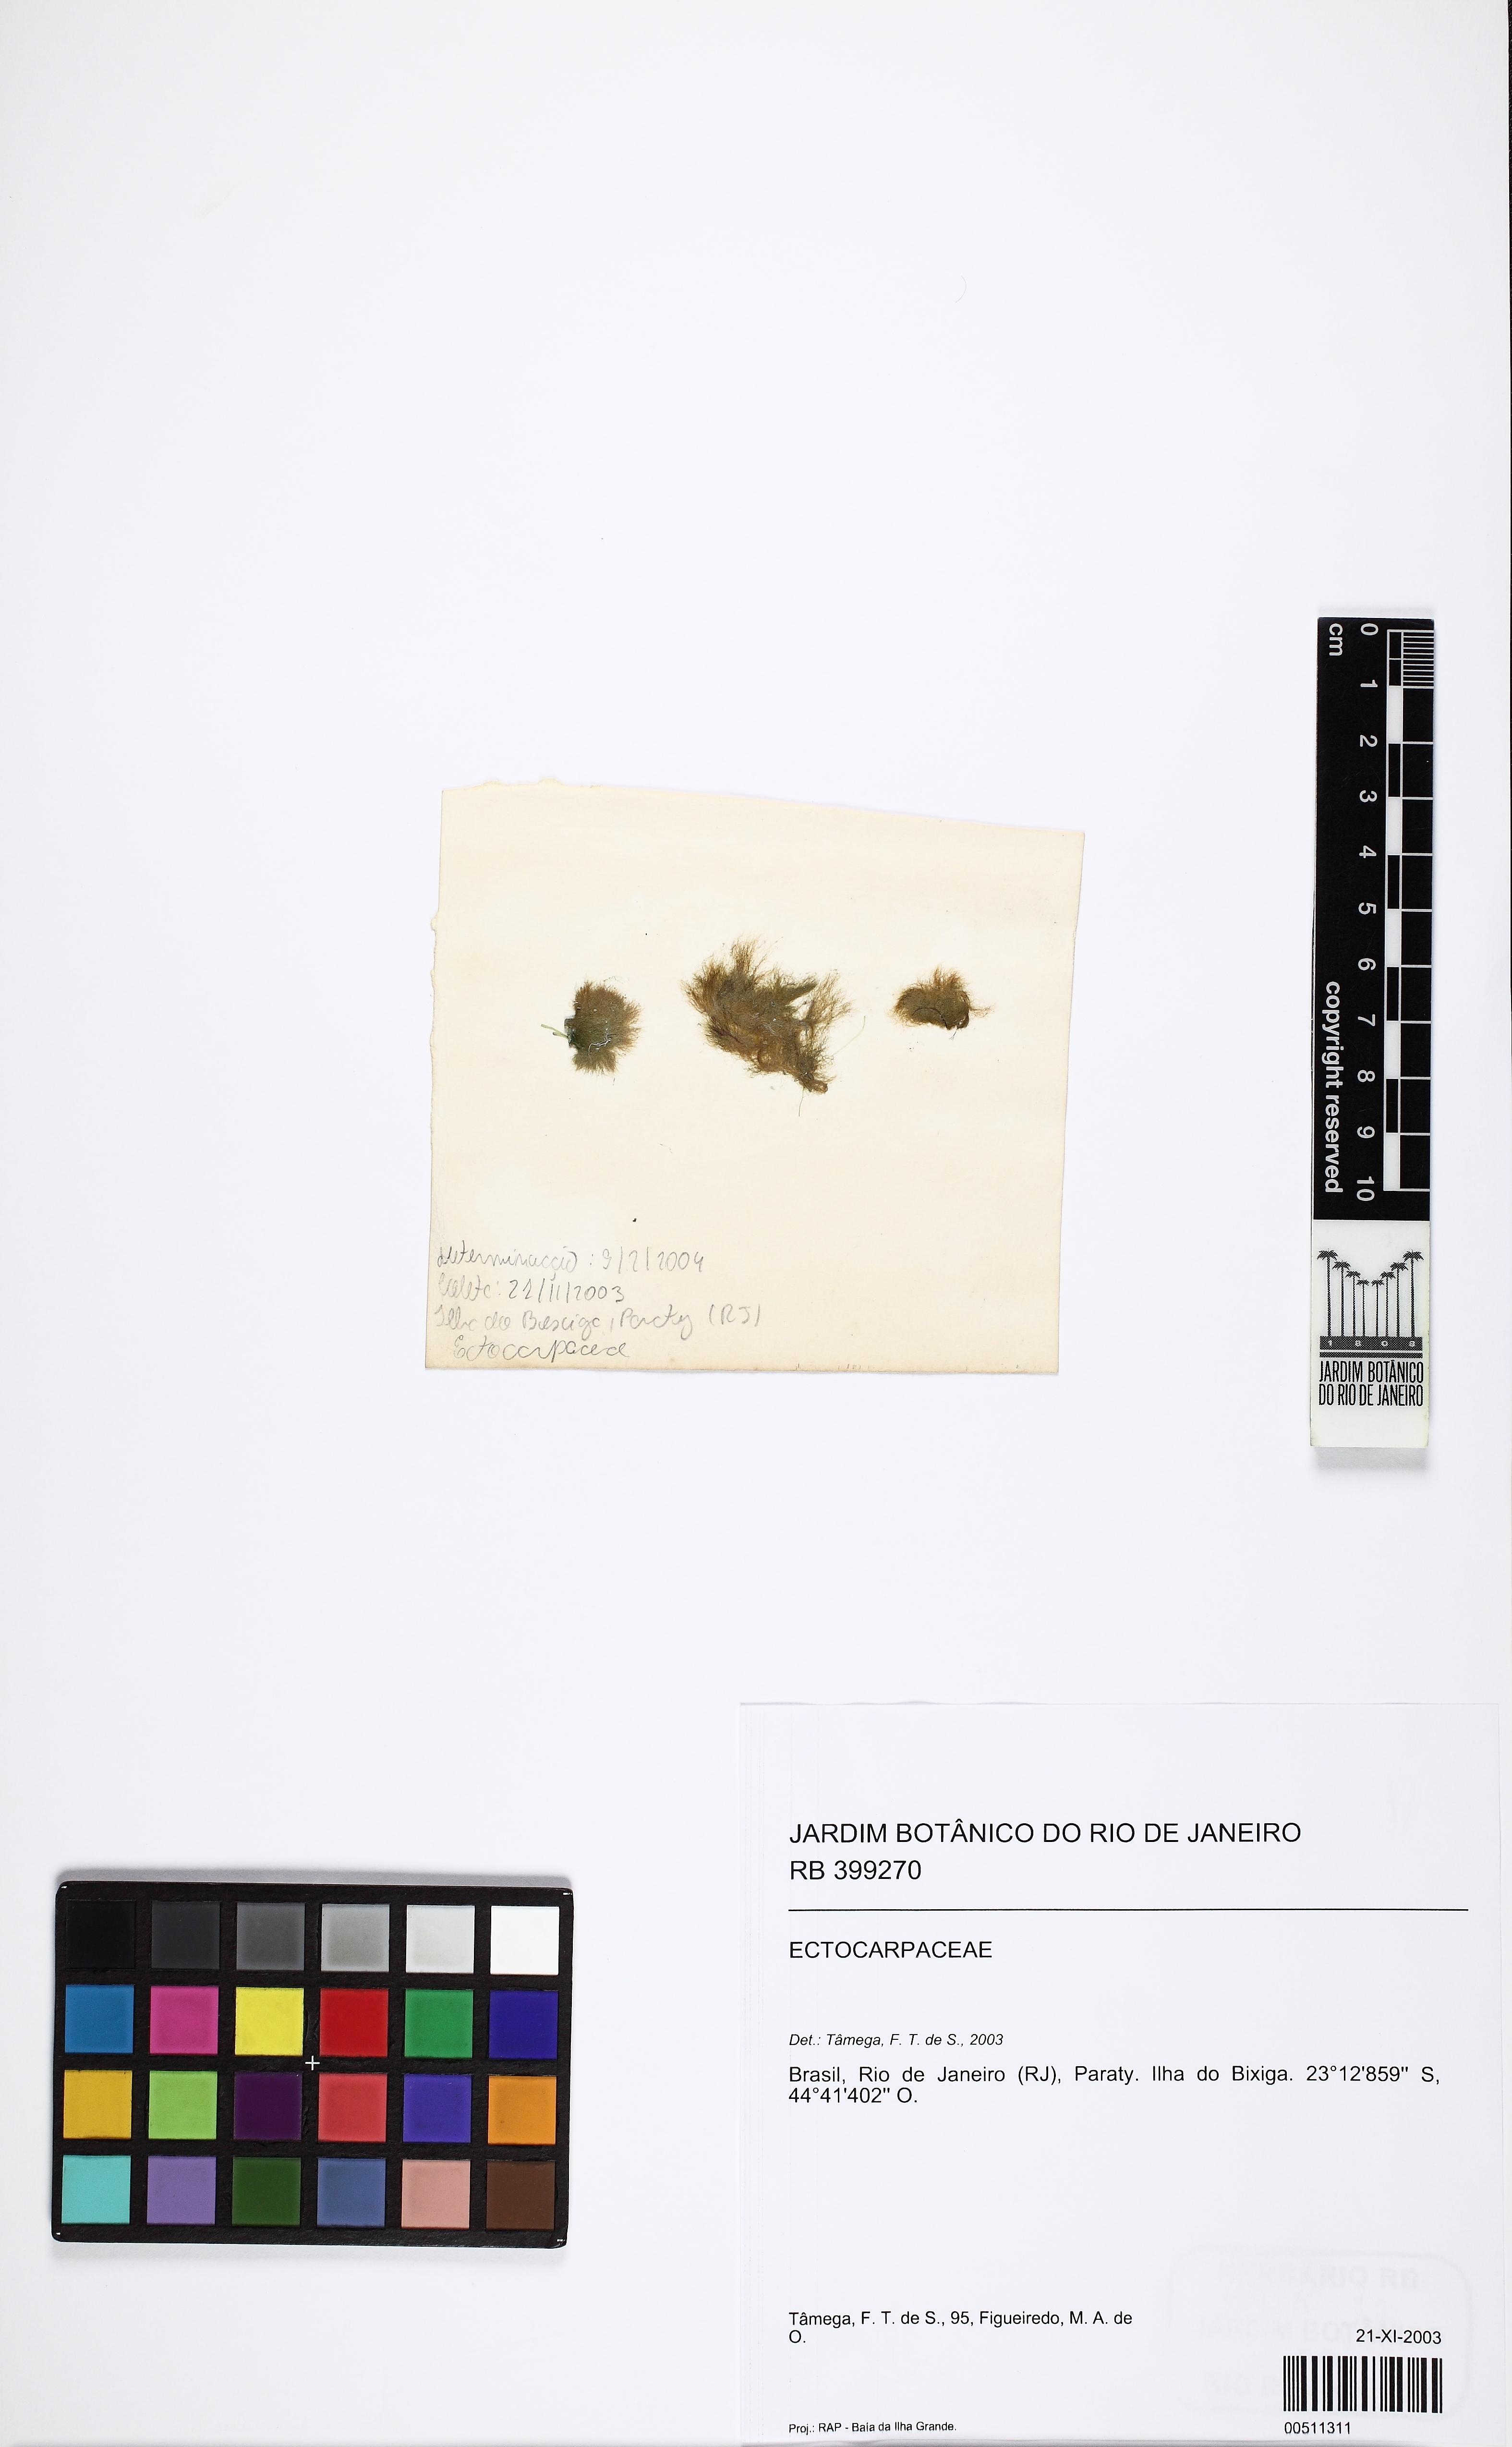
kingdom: Chromista
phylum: Ochrophyta
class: Phaeophyceae
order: Ectocarpales
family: Acinetosporaceae
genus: Feldmannia
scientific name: Feldmannia irregularis
